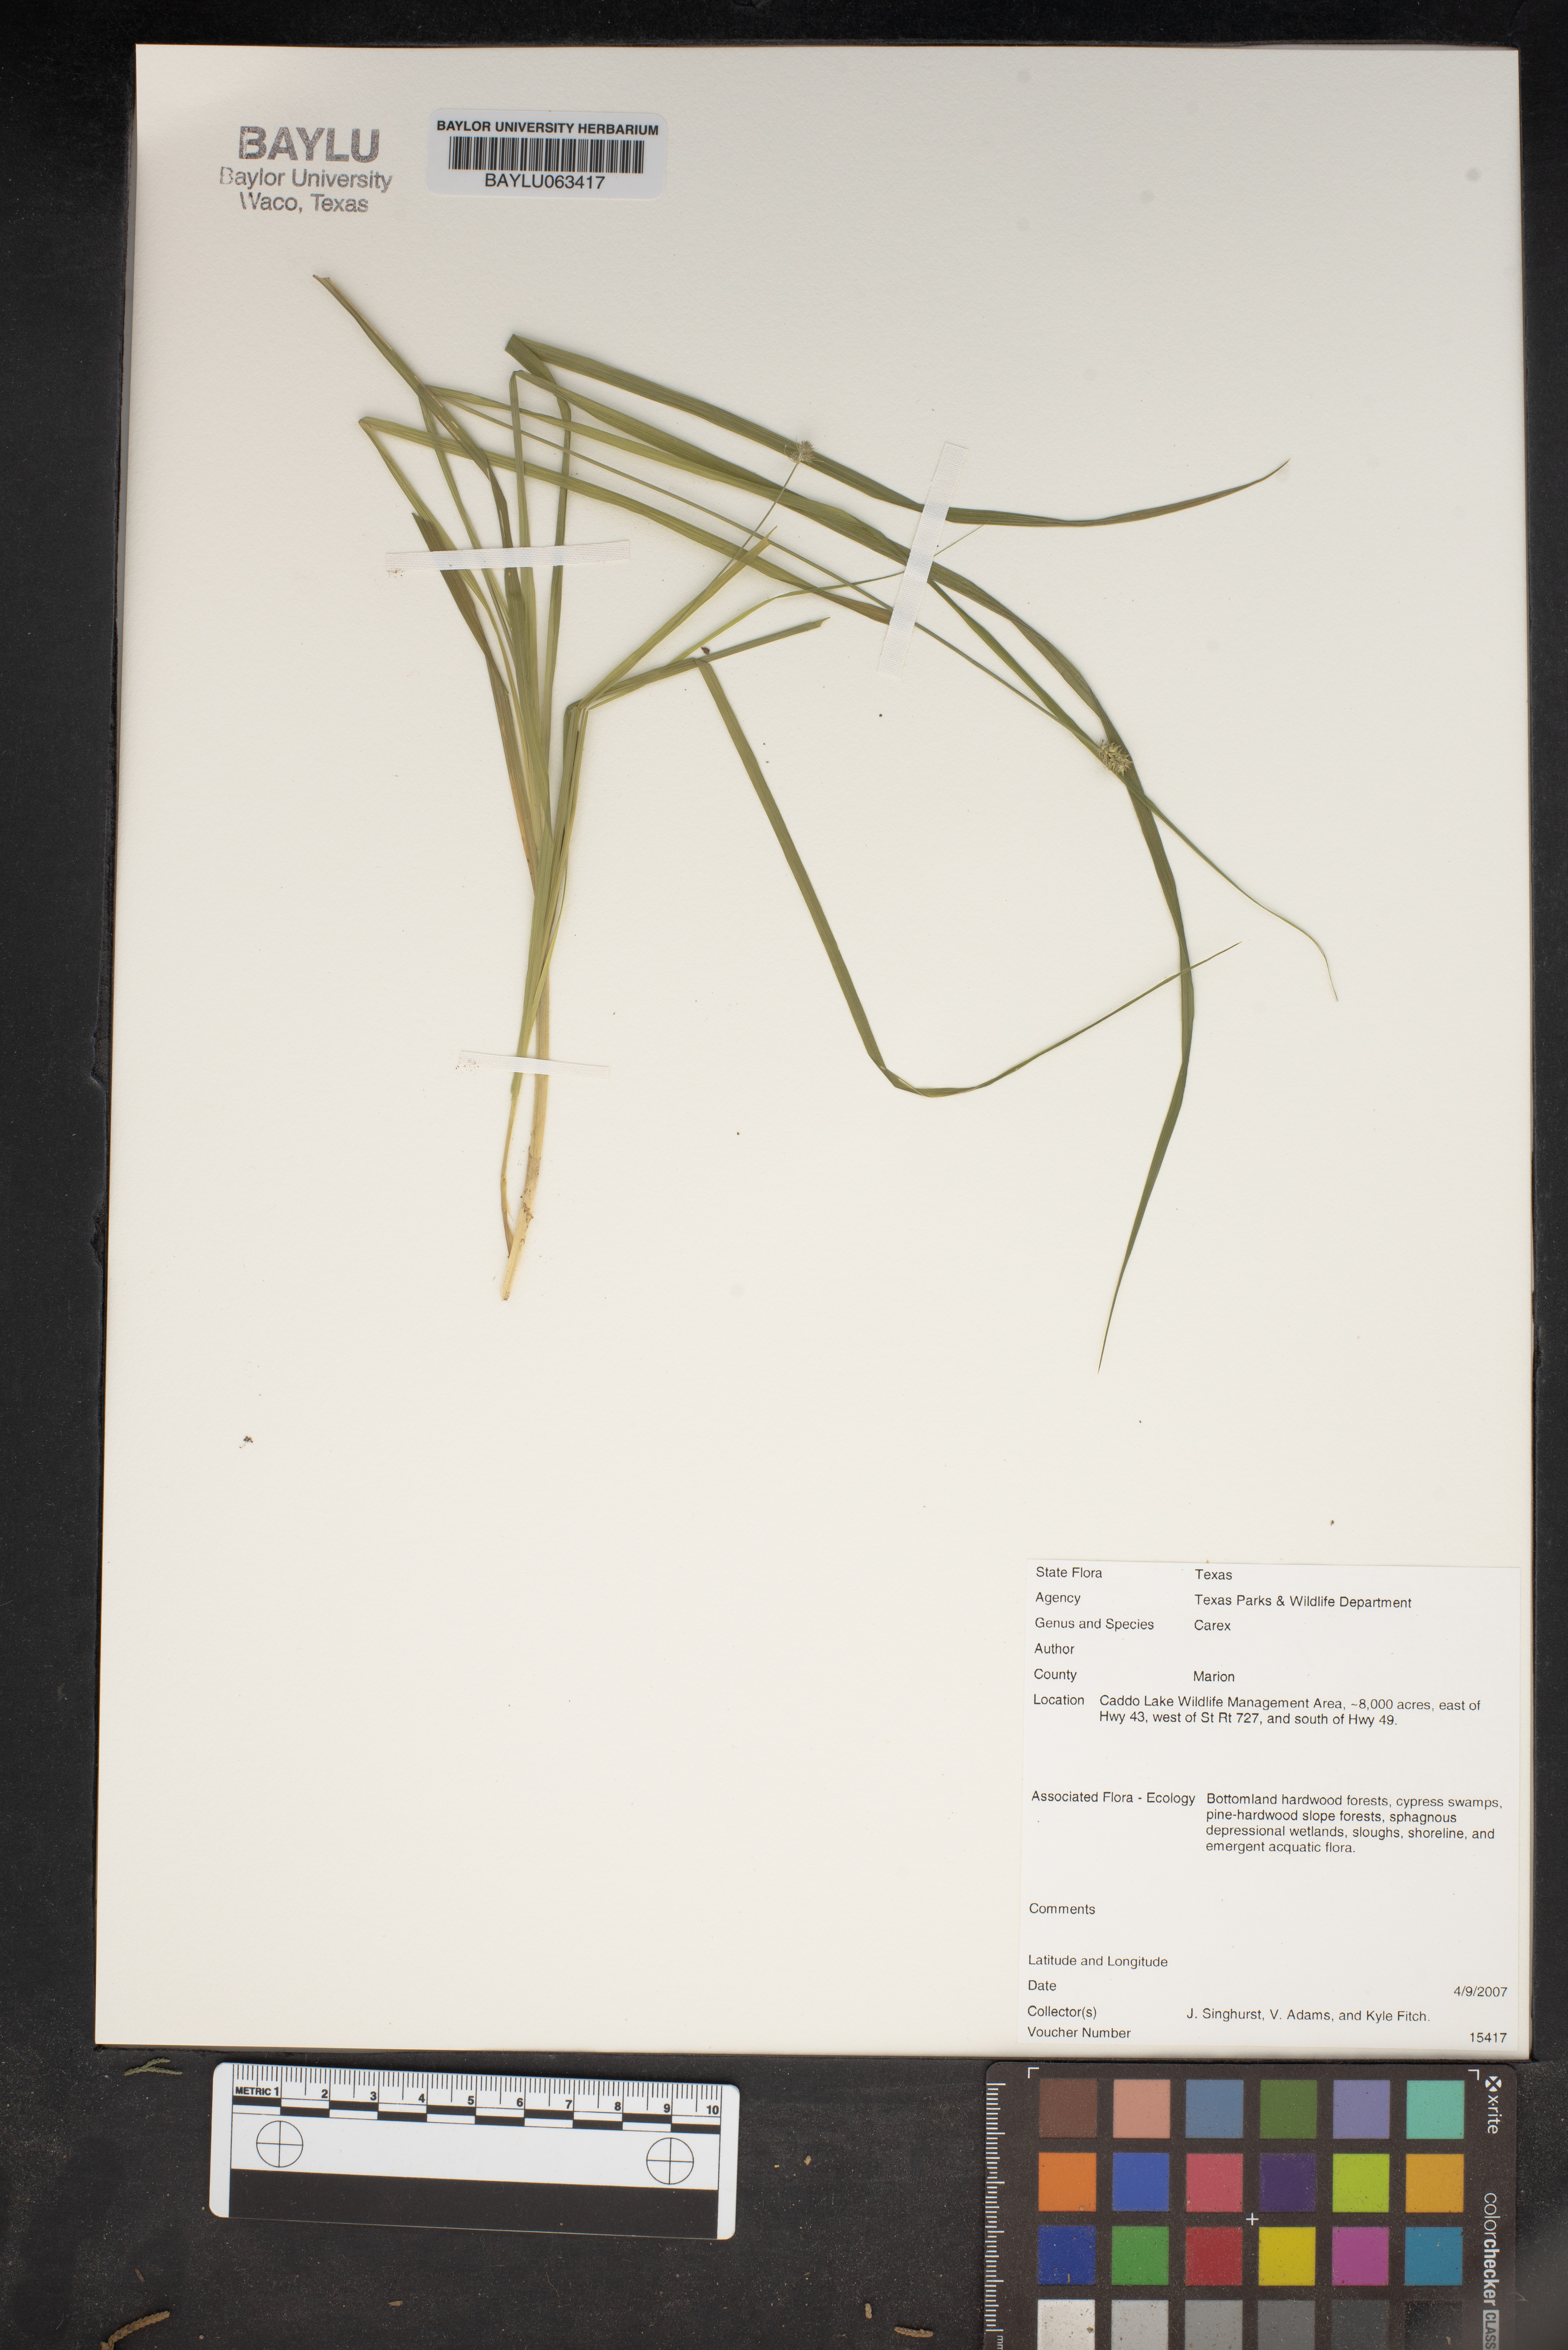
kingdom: Plantae
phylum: Tracheophyta
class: Liliopsida
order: Poales
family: Cyperaceae
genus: Carex
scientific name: Carex
